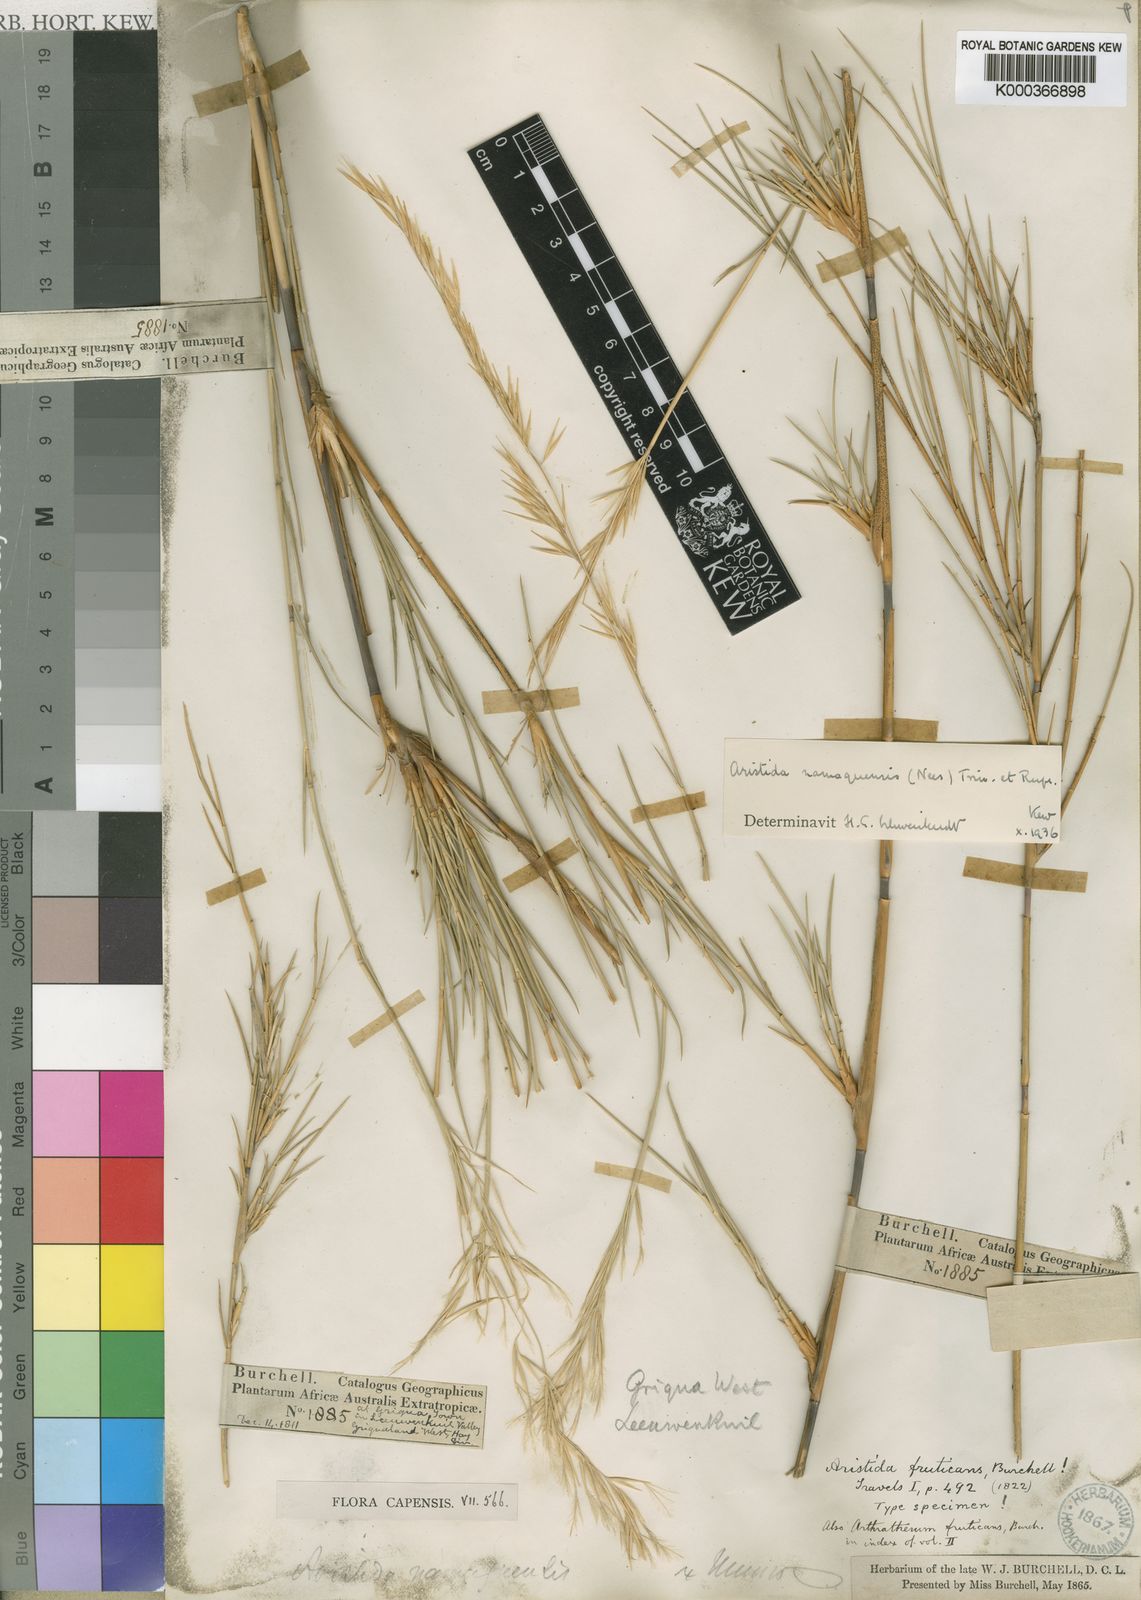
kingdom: Plantae
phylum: Tracheophyta
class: Liliopsida
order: Poales
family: Poaceae
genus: Stipagrostis
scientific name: Stipagrostis namaquensis
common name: River bushman grass
